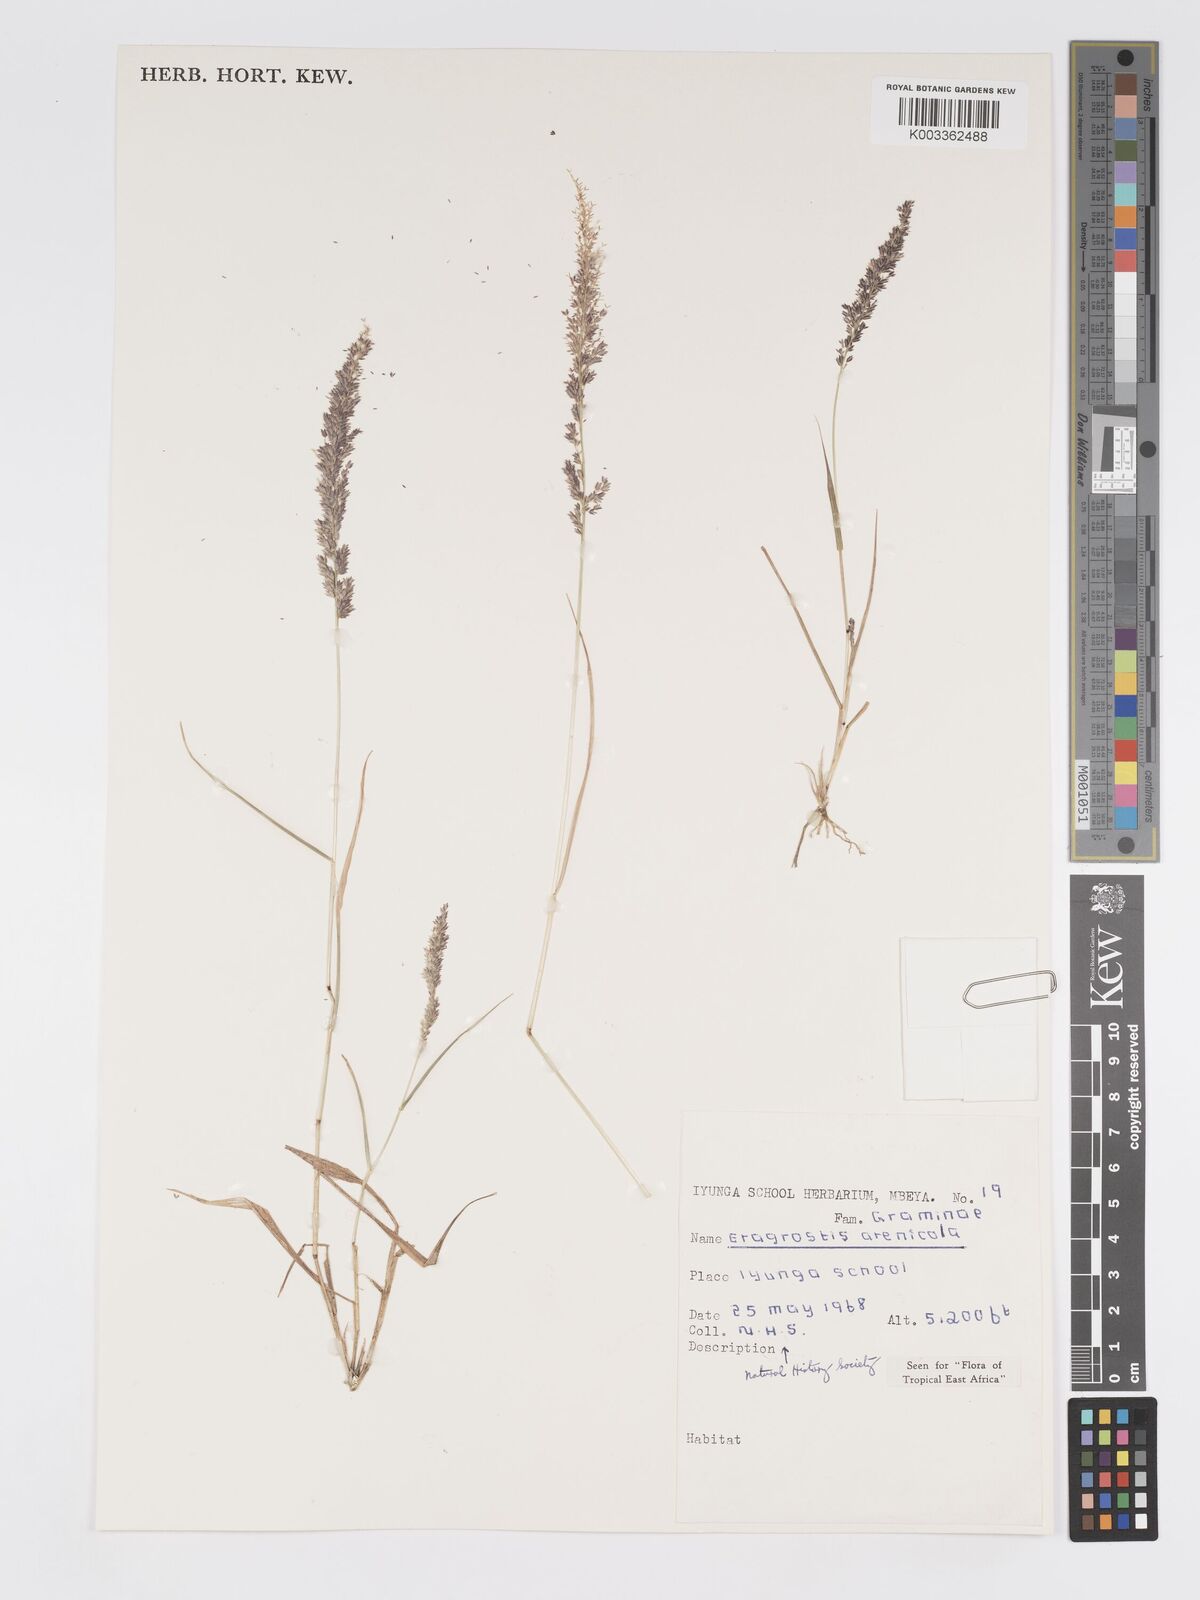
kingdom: Plantae
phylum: Tracheophyta
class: Liliopsida
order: Poales
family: Poaceae
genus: Eragrostis
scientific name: Eragrostis arenicola
